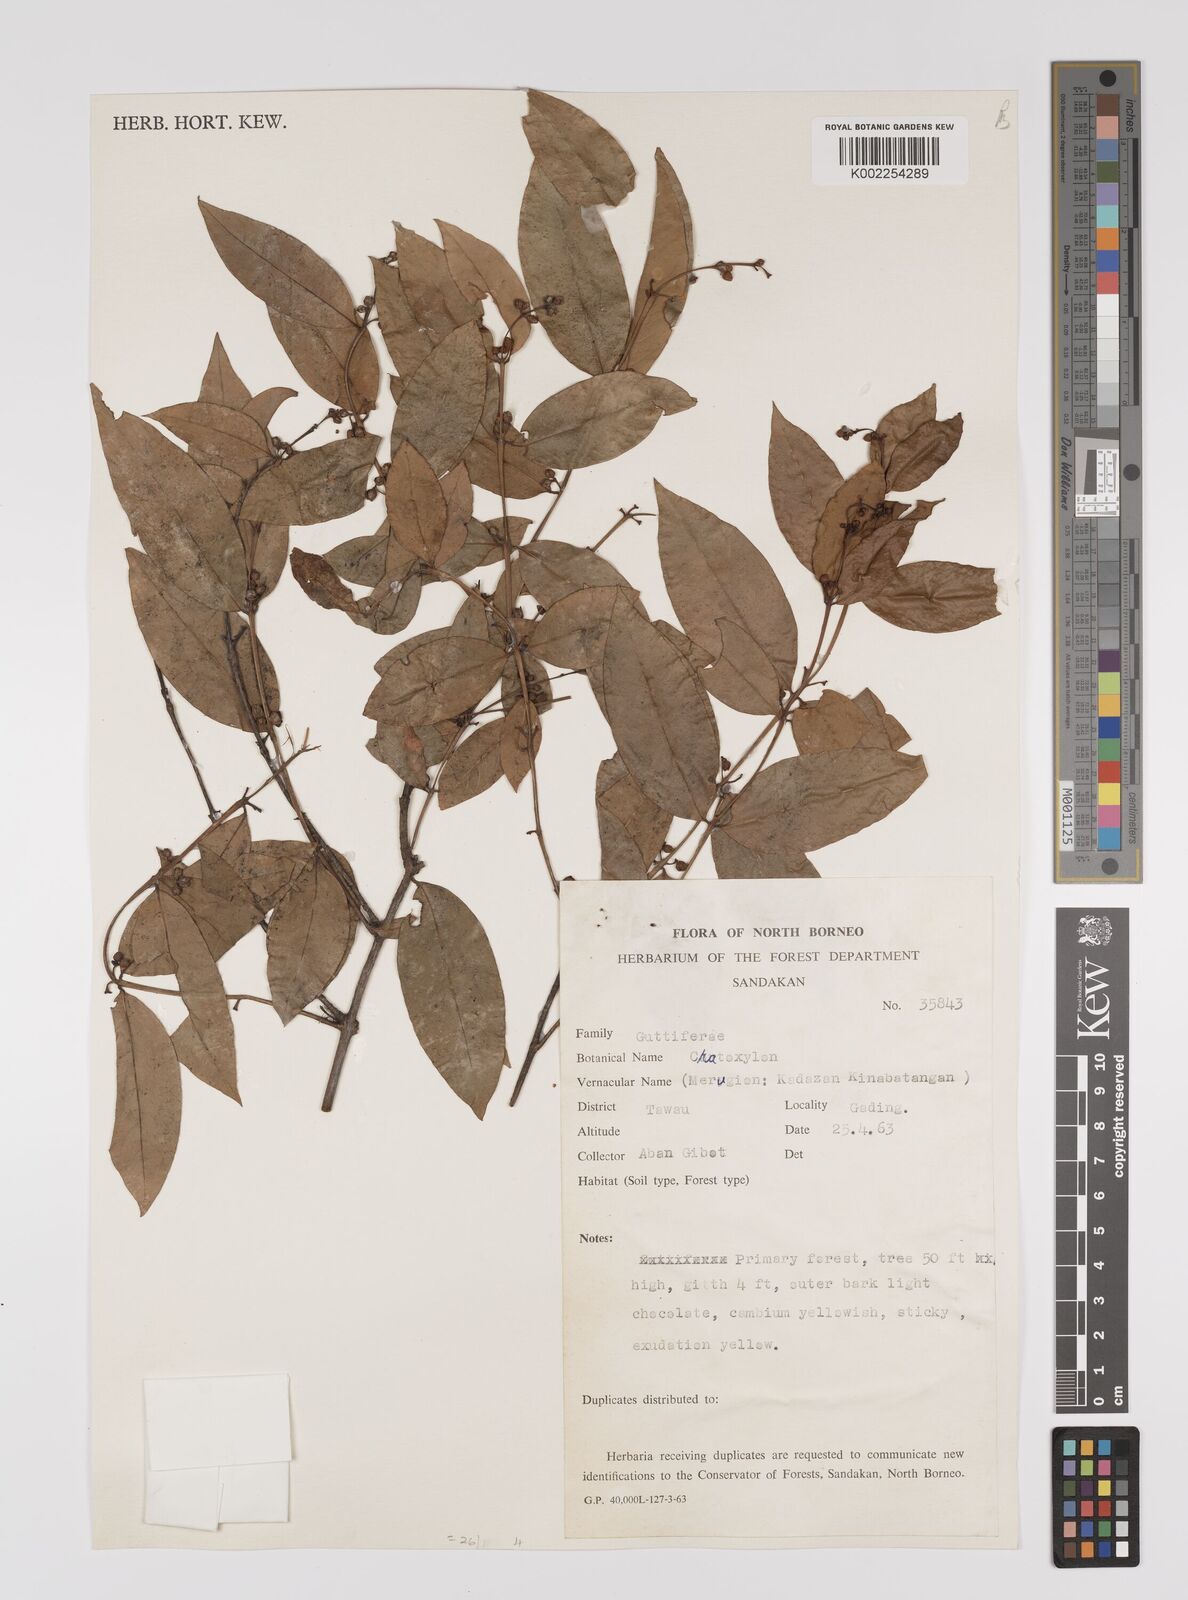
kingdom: Plantae
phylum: Tracheophyta
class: Magnoliopsida
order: Malpighiales
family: Hypericaceae
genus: Cratoxylum
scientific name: Cratoxylum
